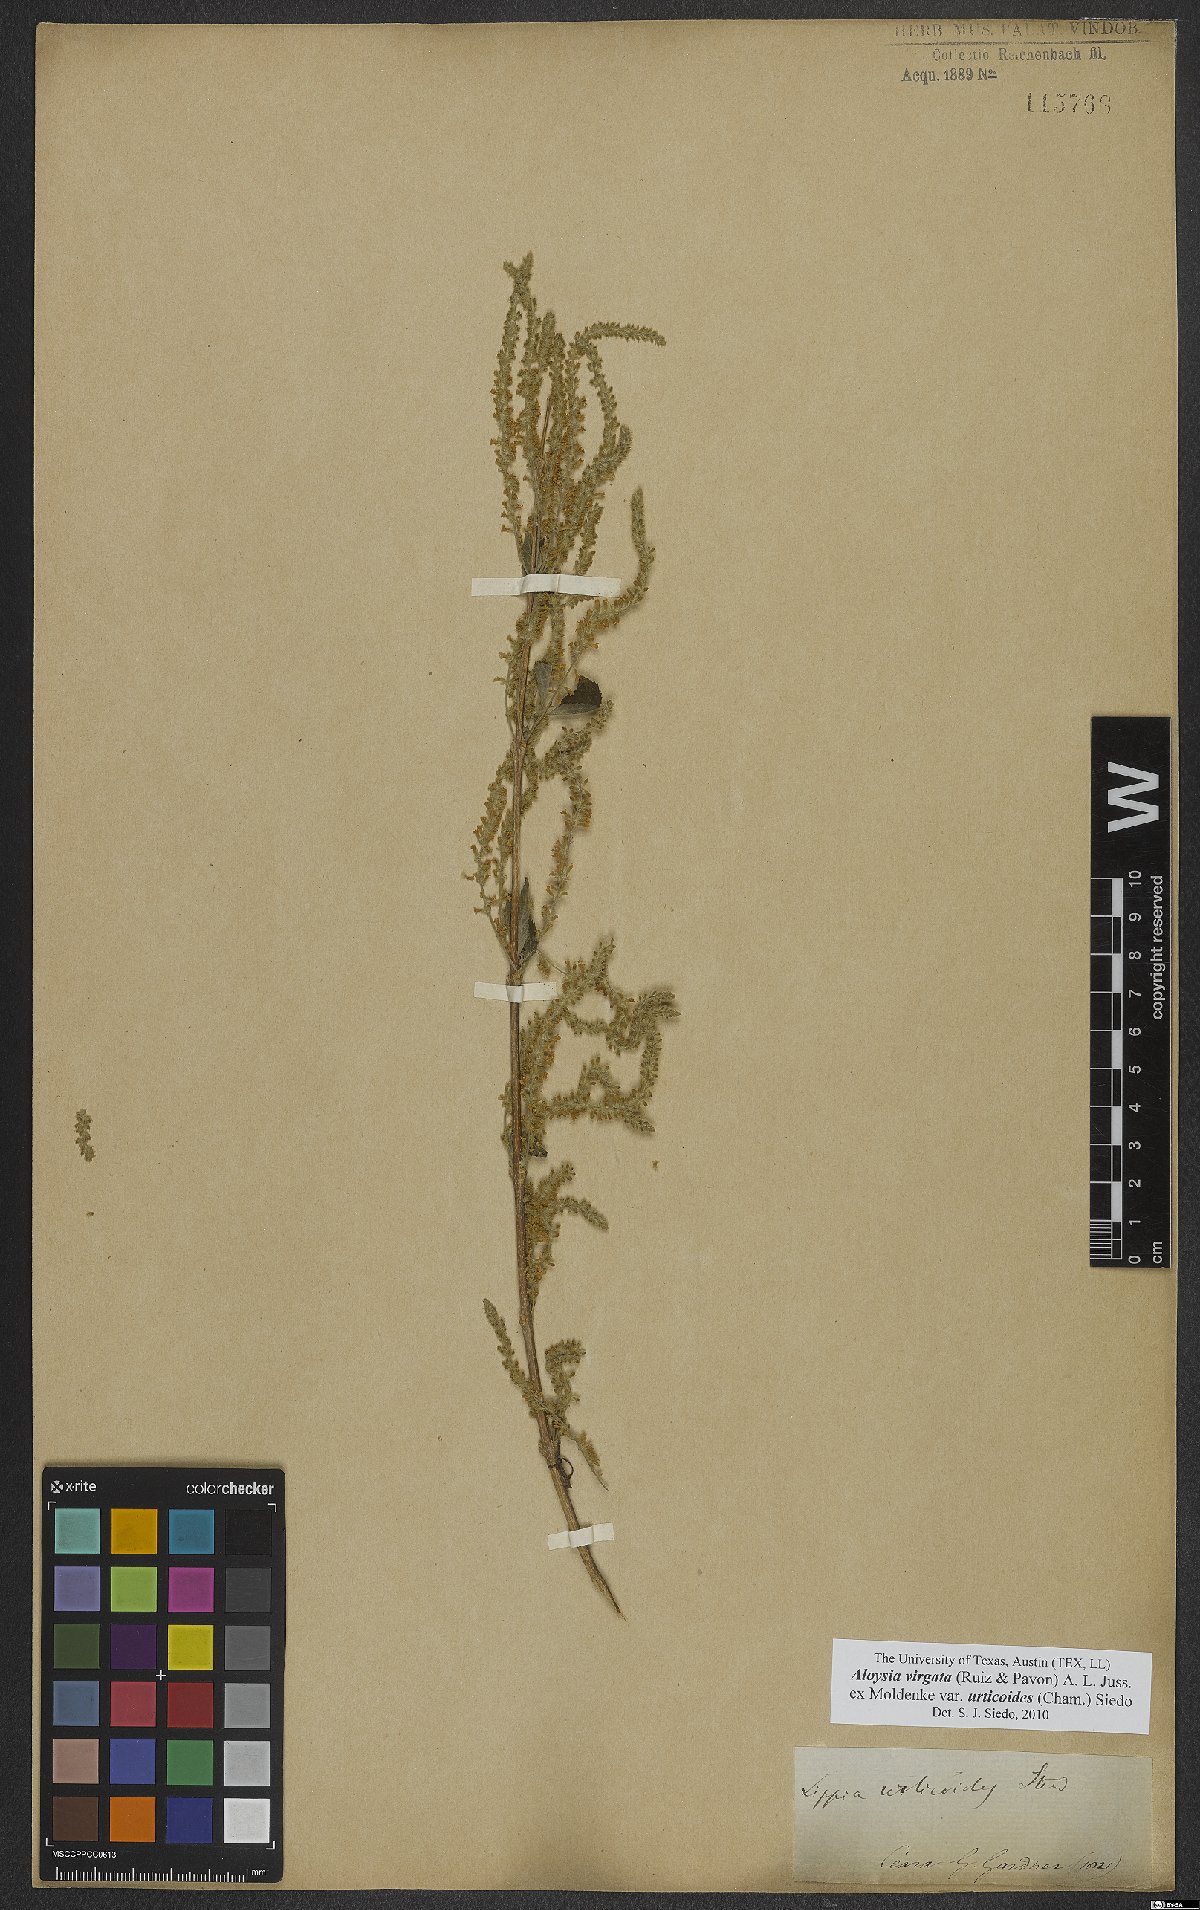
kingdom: Plantae
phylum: Tracheophyta
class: Magnoliopsida
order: Lamiales
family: Verbenaceae
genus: Aloysia
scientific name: Aloysia virgata
